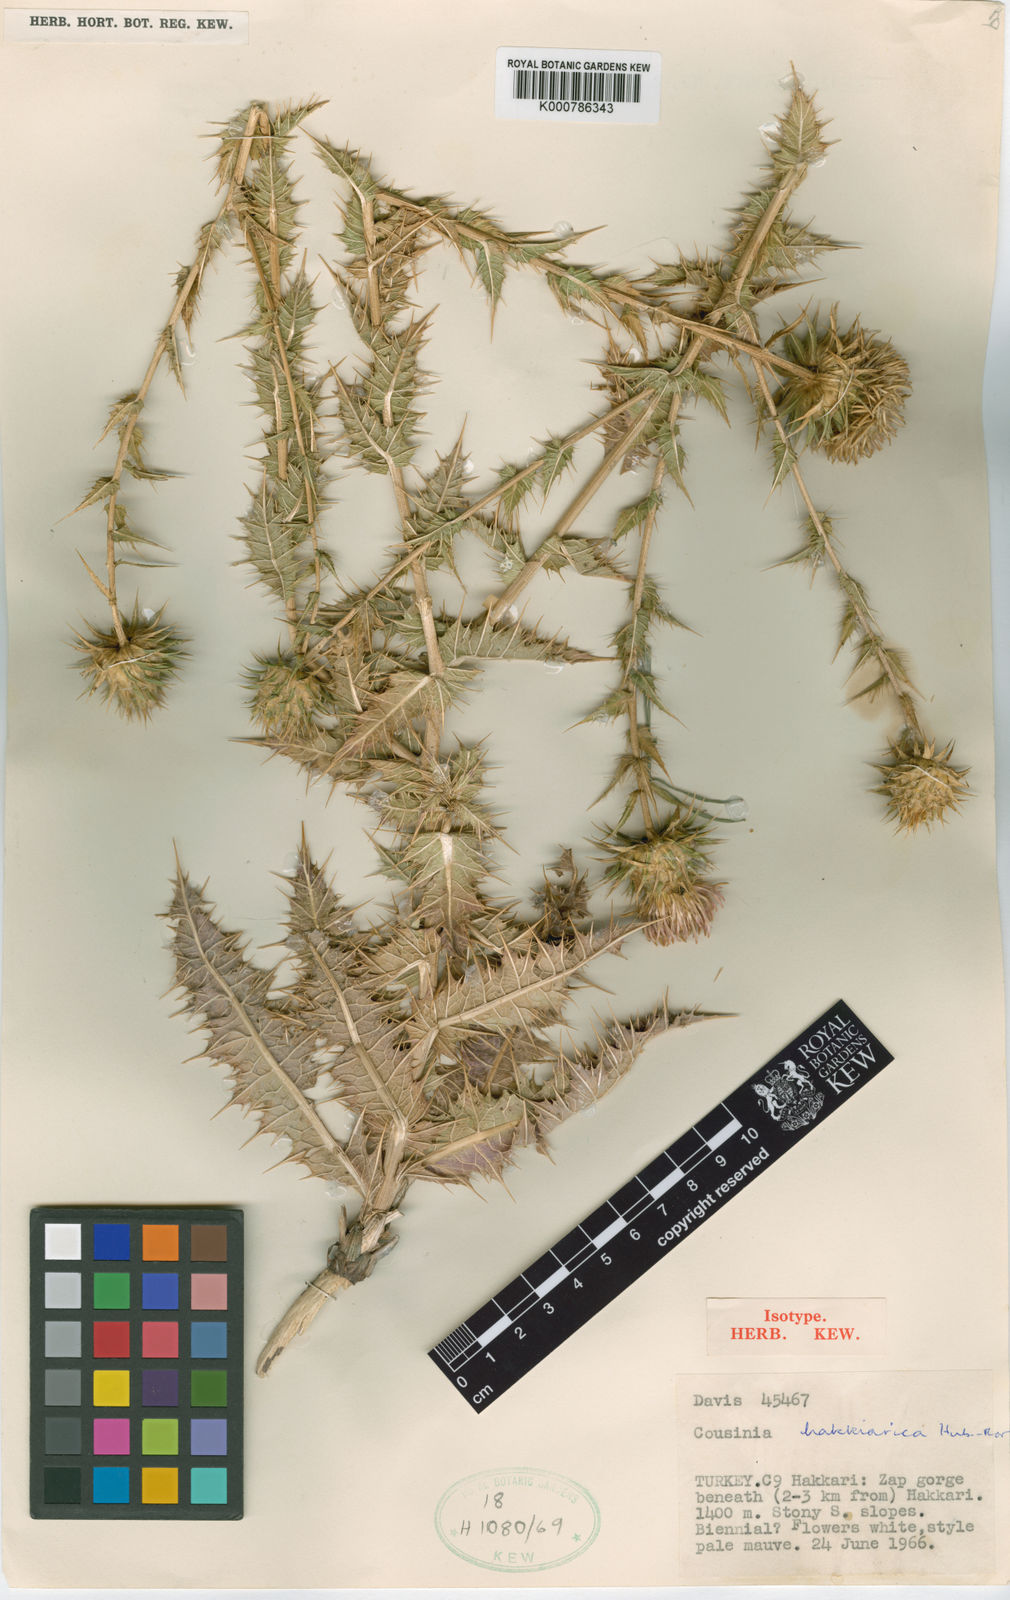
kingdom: Plantae
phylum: Tracheophyta
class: Magnoliopsida
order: Asterales
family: Asteraceae
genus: Cousinia
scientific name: Cousinia hakkarica
